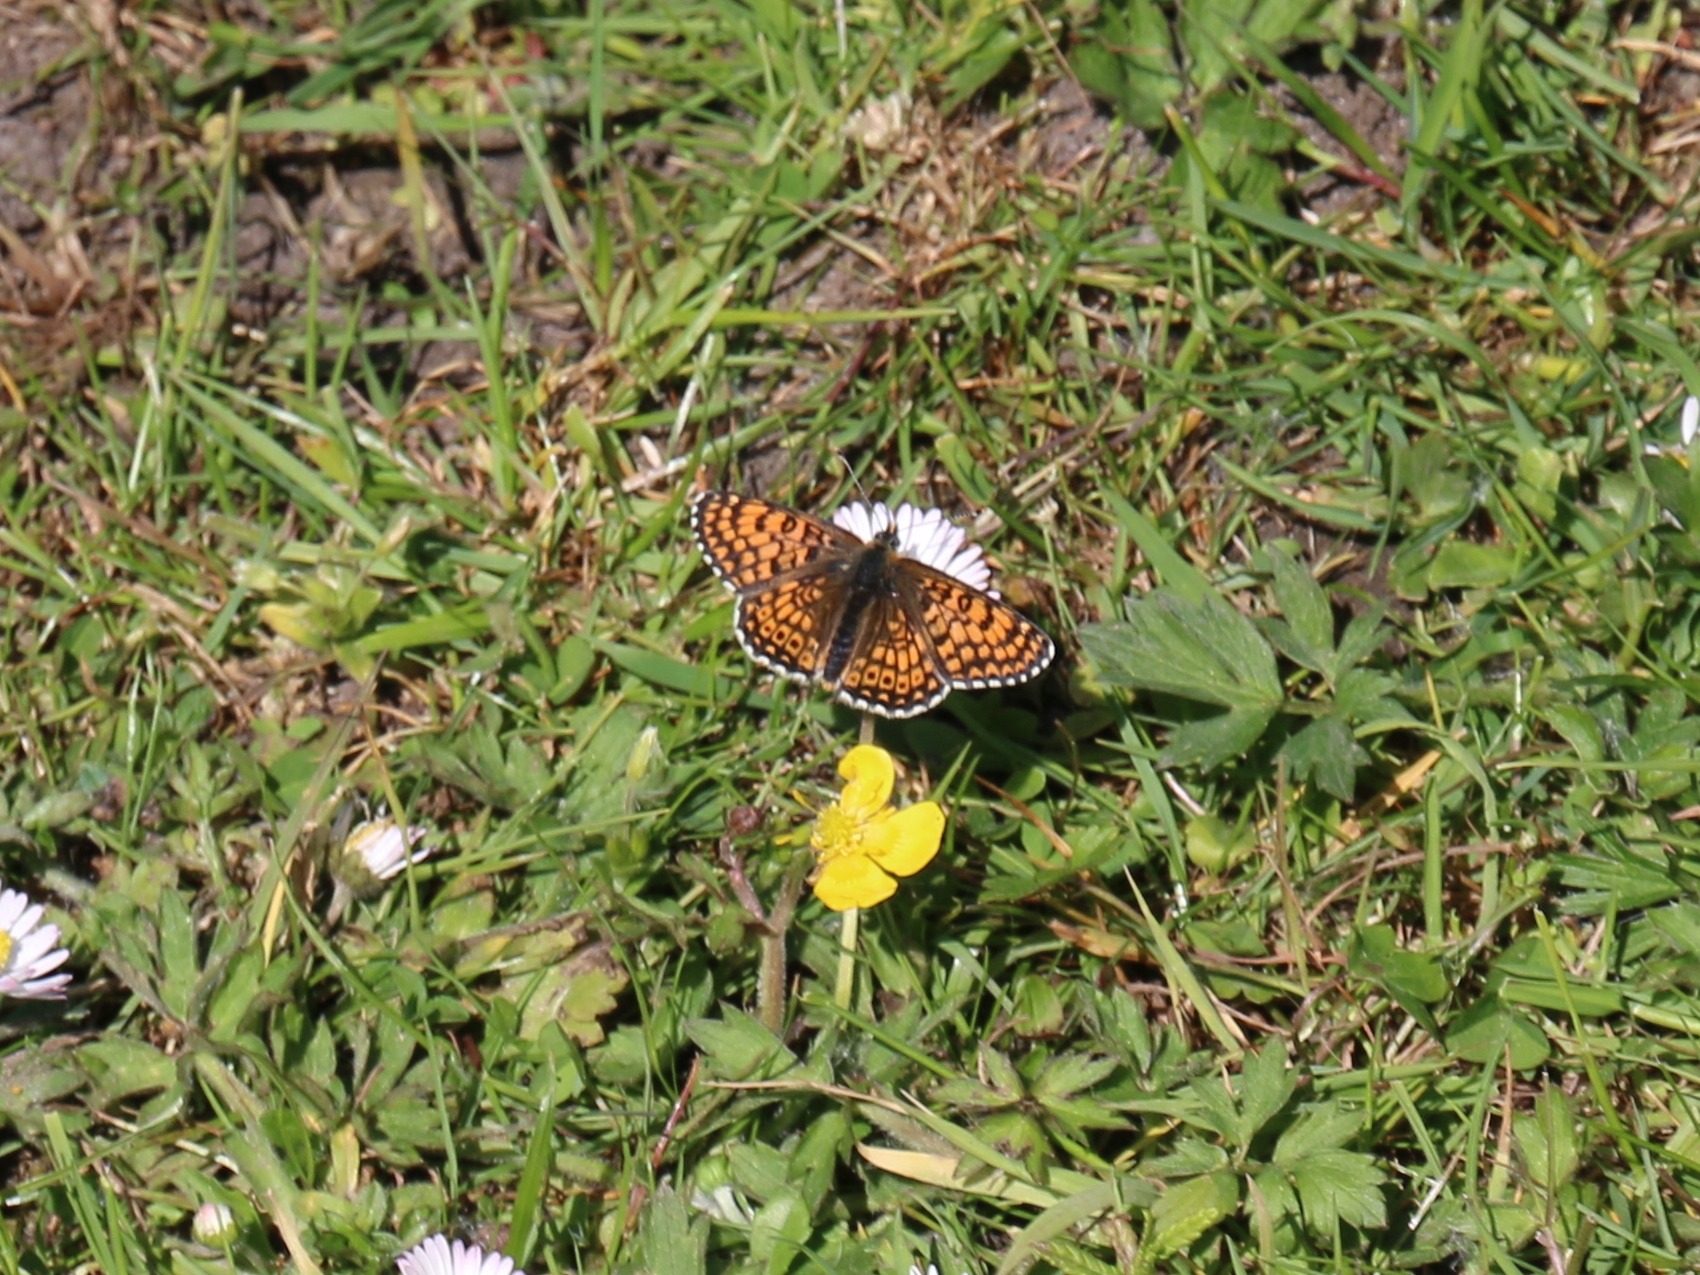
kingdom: Animalia
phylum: Arthropoda
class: Insecta
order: Lepidoptera
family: Nymphalidae
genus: Melitaea
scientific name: Melitaea cinxia
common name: Okkergul pletvinge
